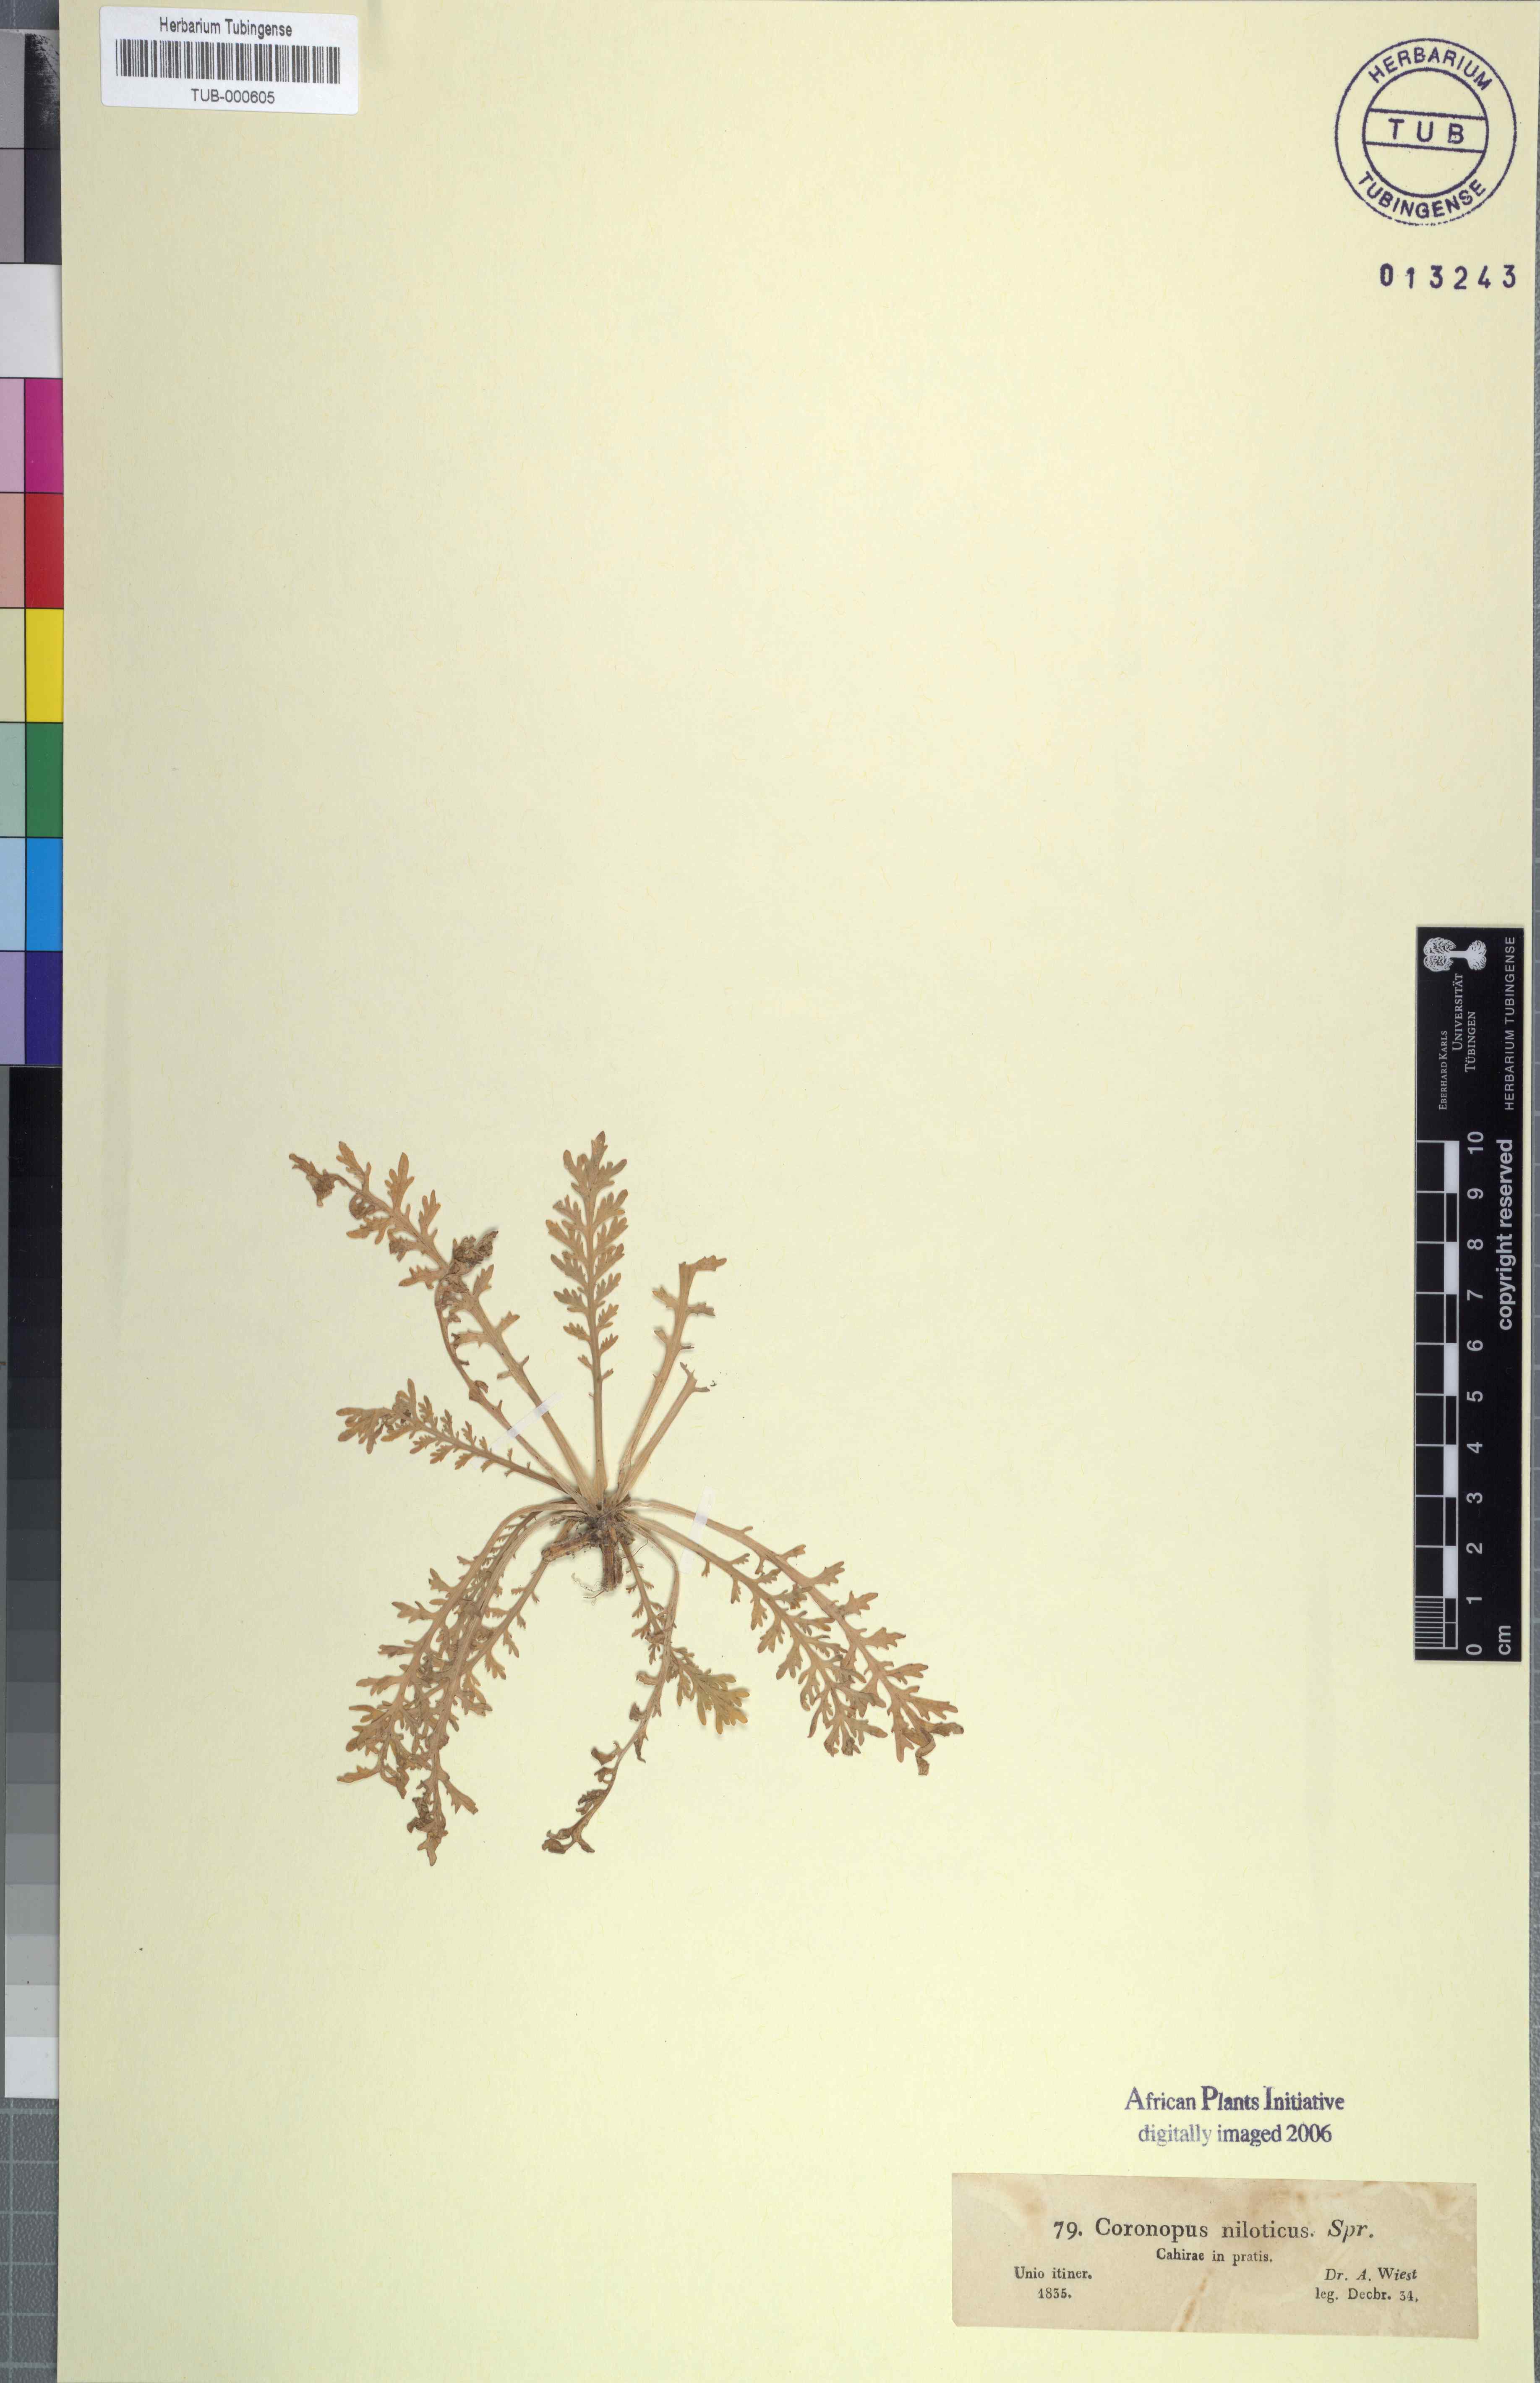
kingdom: Plantae
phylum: Tracheophyta
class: Magnoliopsida
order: Brassicales
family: Brassicaceae
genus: Lepidium
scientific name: Lepidium niloticum
